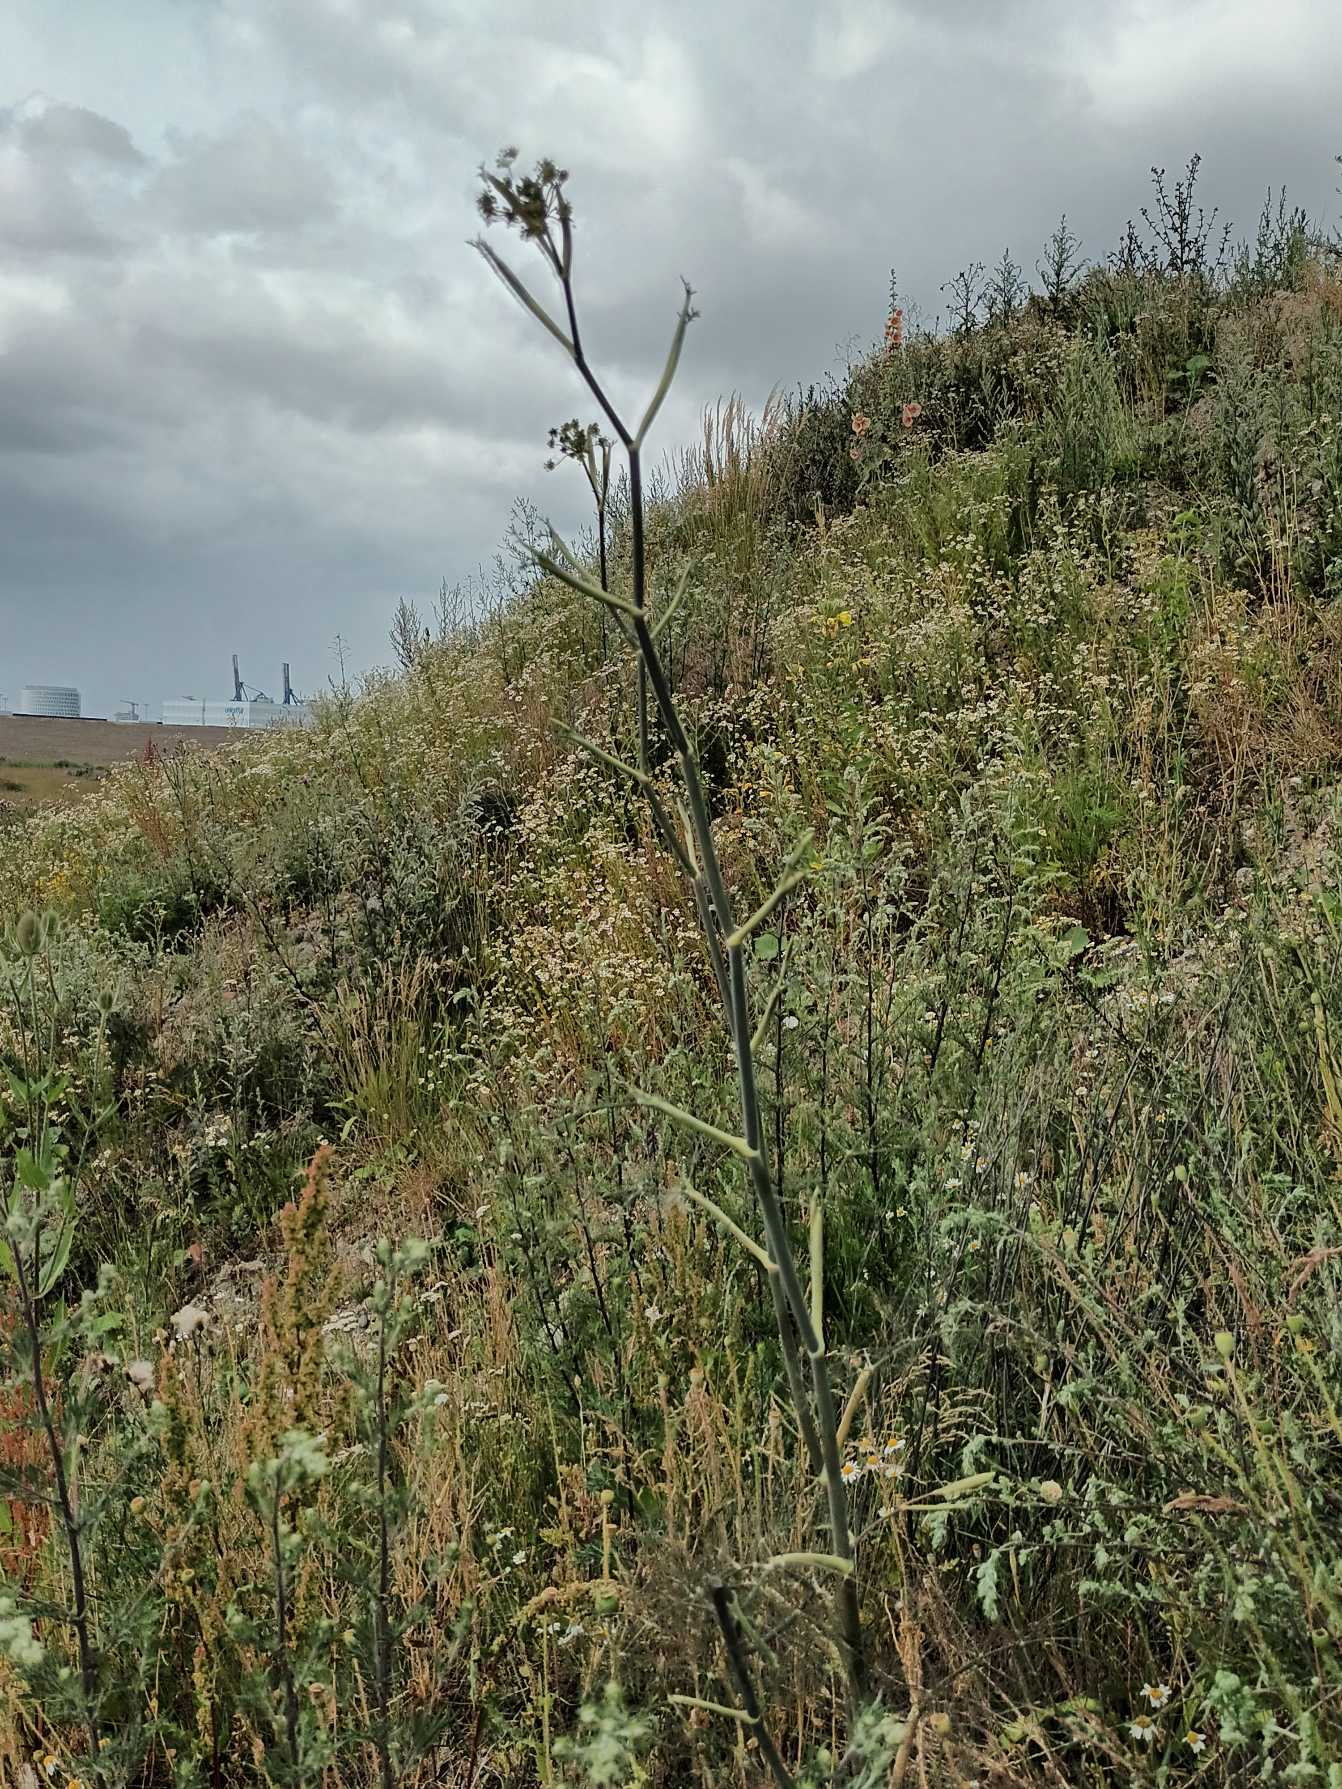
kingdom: Plantae
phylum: Tracheophyta
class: Magnoliopsida
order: Apiales
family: Apiaceae
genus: Foeniculum
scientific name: Foeniculum vulgare
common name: Fennikel
